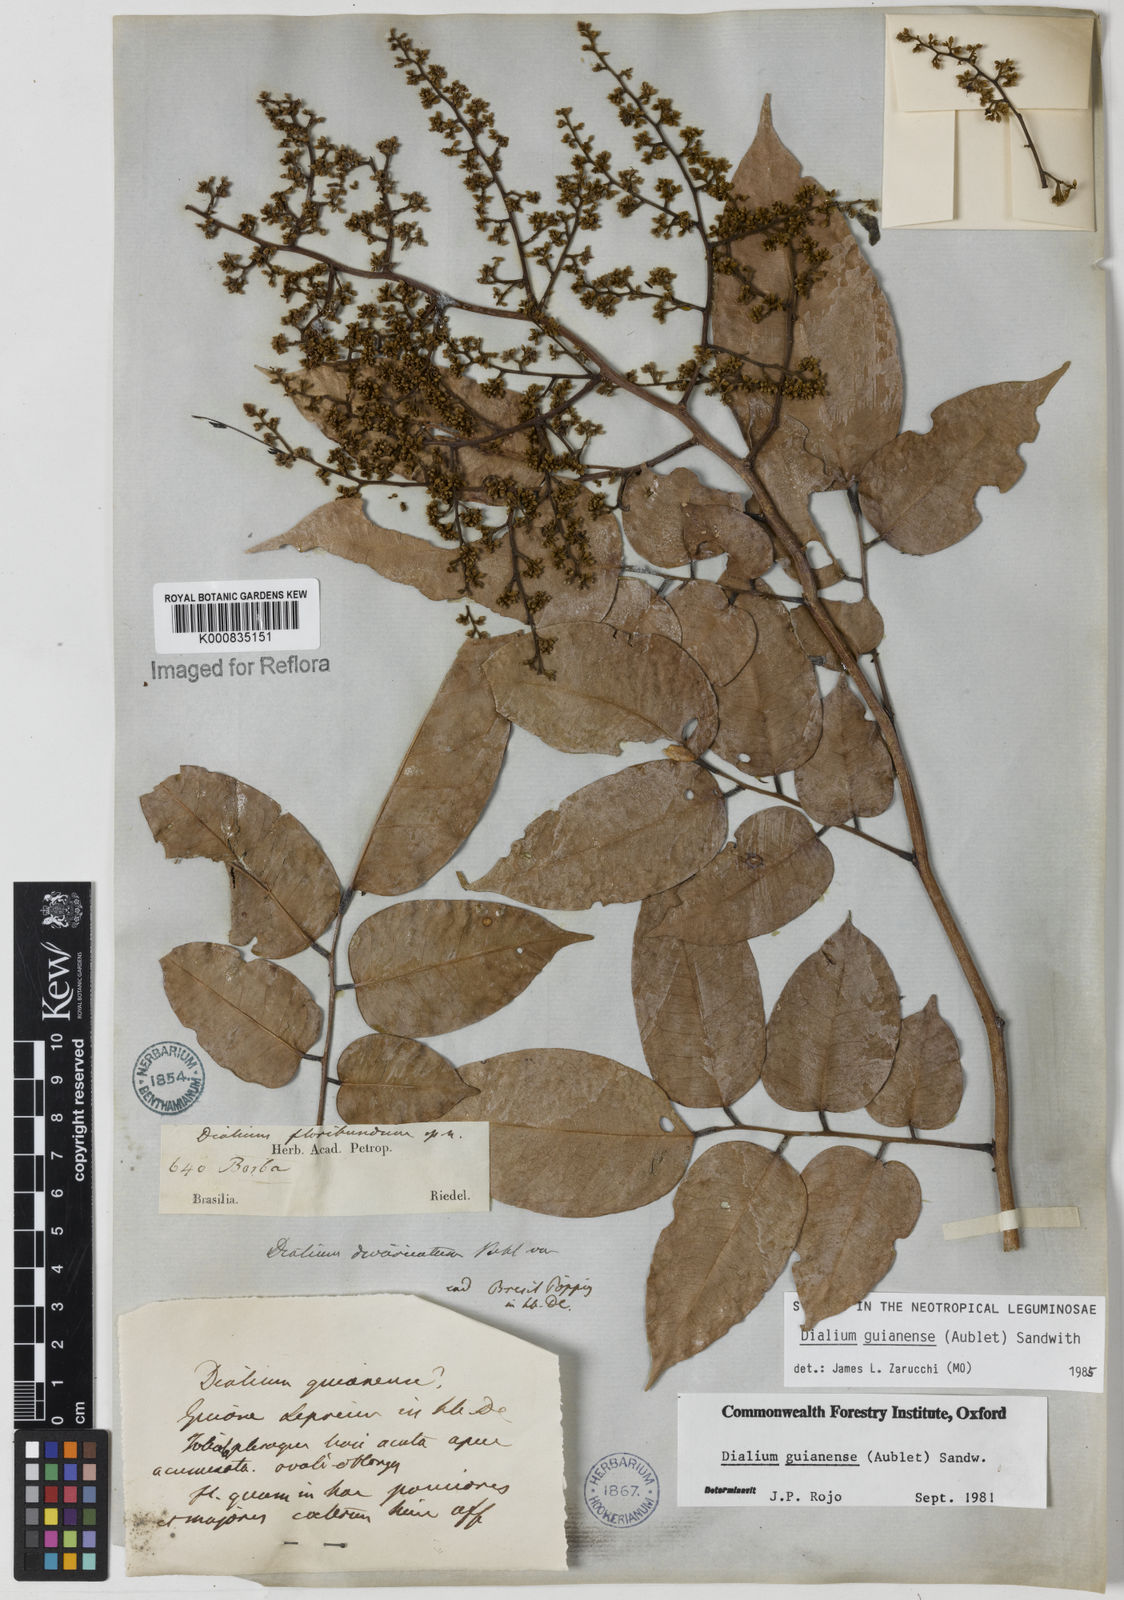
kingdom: Plantae
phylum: Tracheophyta
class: Magnoliopsida
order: Fabales
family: Fabaceae
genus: Dialium
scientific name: Dialium guianense
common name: Ironwood
